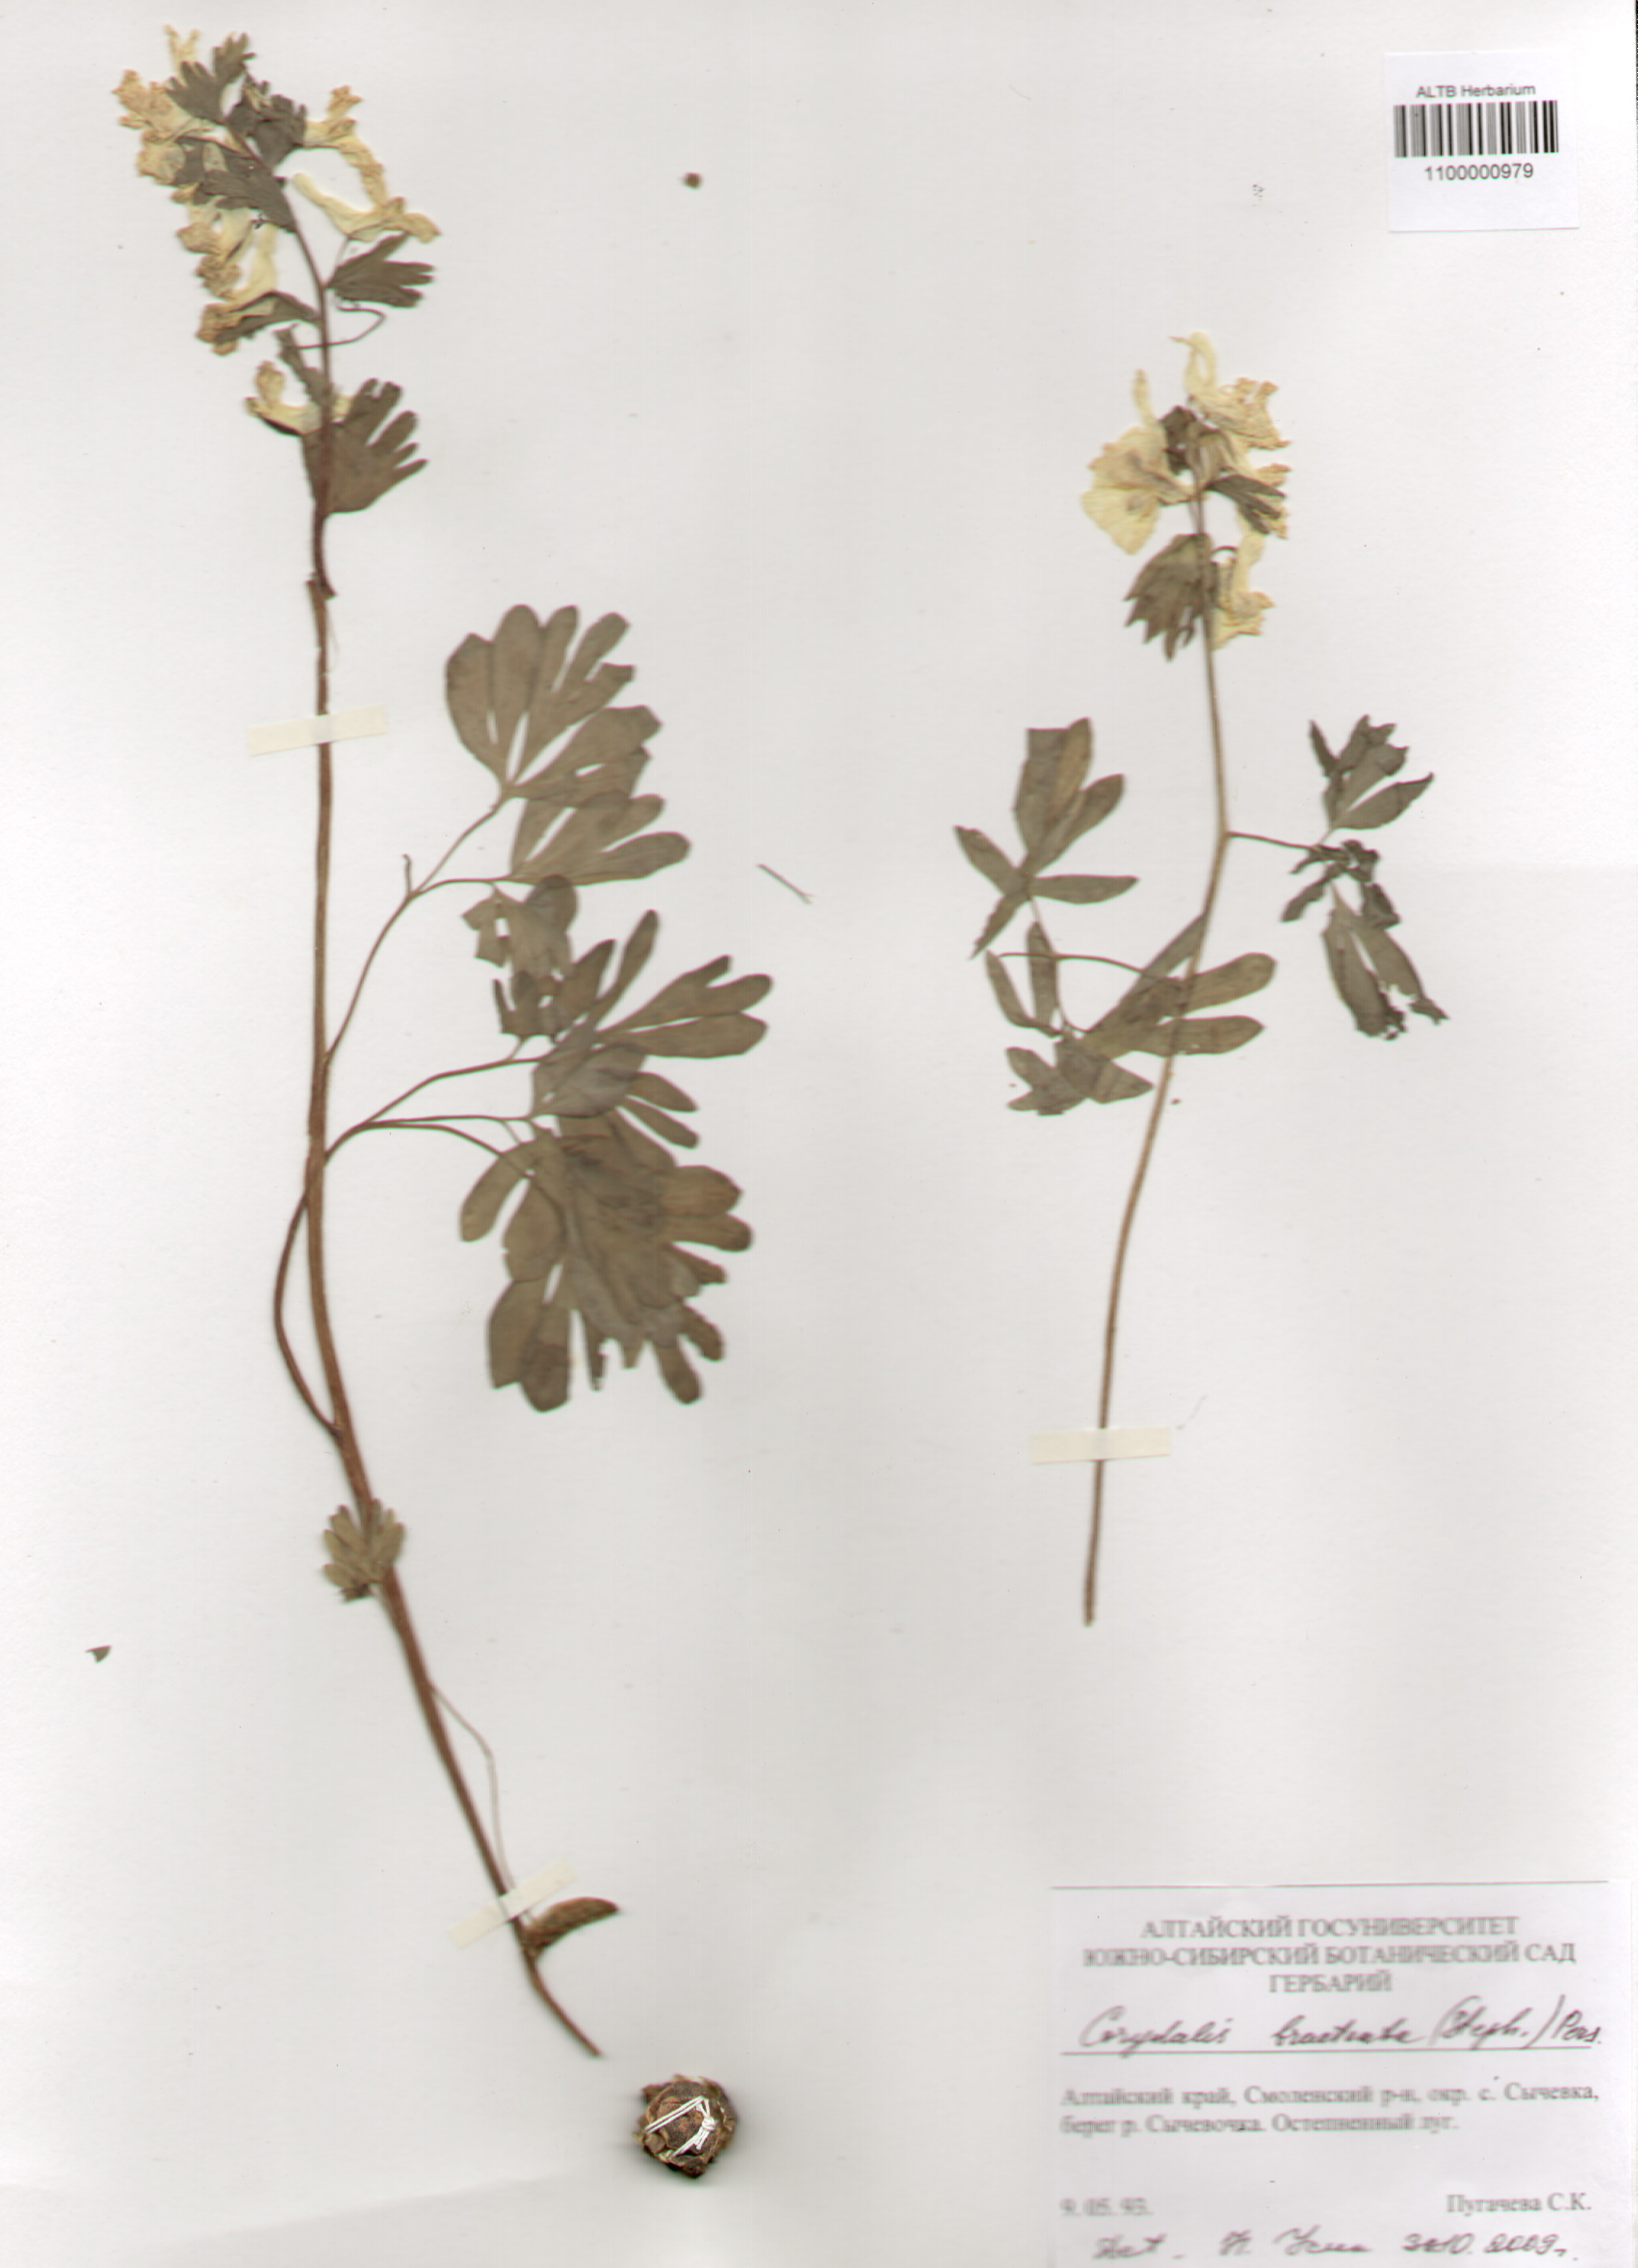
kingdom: Plantae
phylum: Tracheophyta
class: Magnoliopsida
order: Ranunculales
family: Papaveraceae
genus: Corydalis
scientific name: Corydalis bracteata
